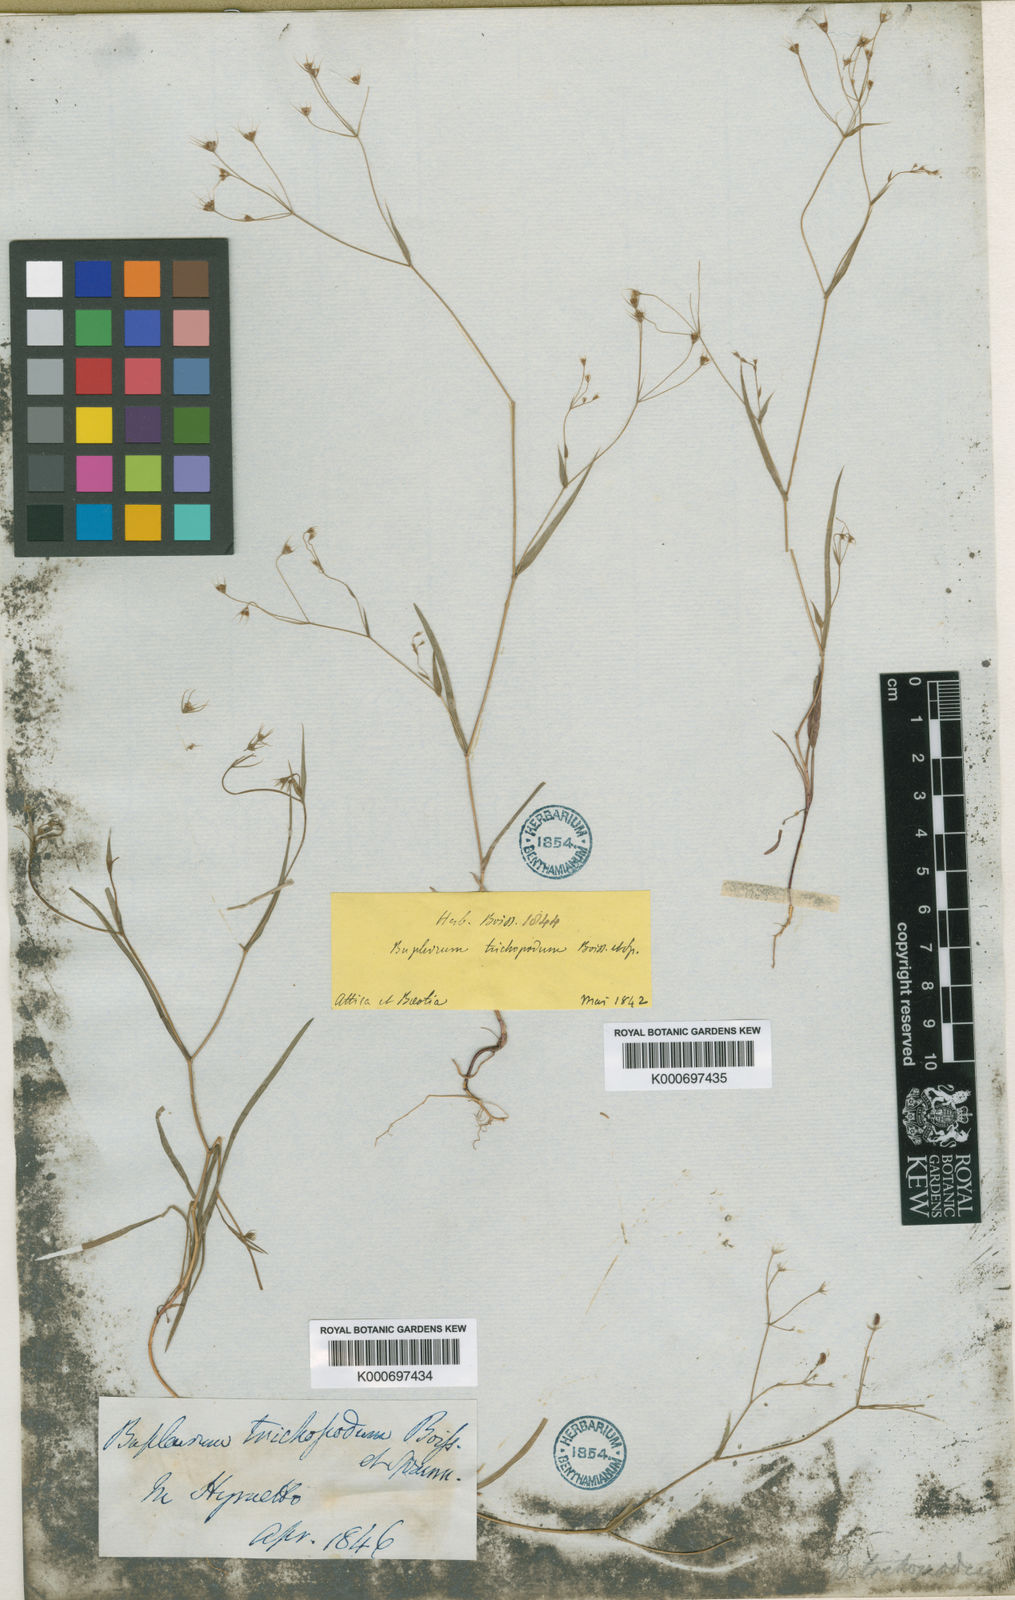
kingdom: Plantae
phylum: Tracheophyta
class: Magnoliopsida
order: Apiales
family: Apiaceae
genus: Bupleurum
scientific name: Bupleurum trichopodum
